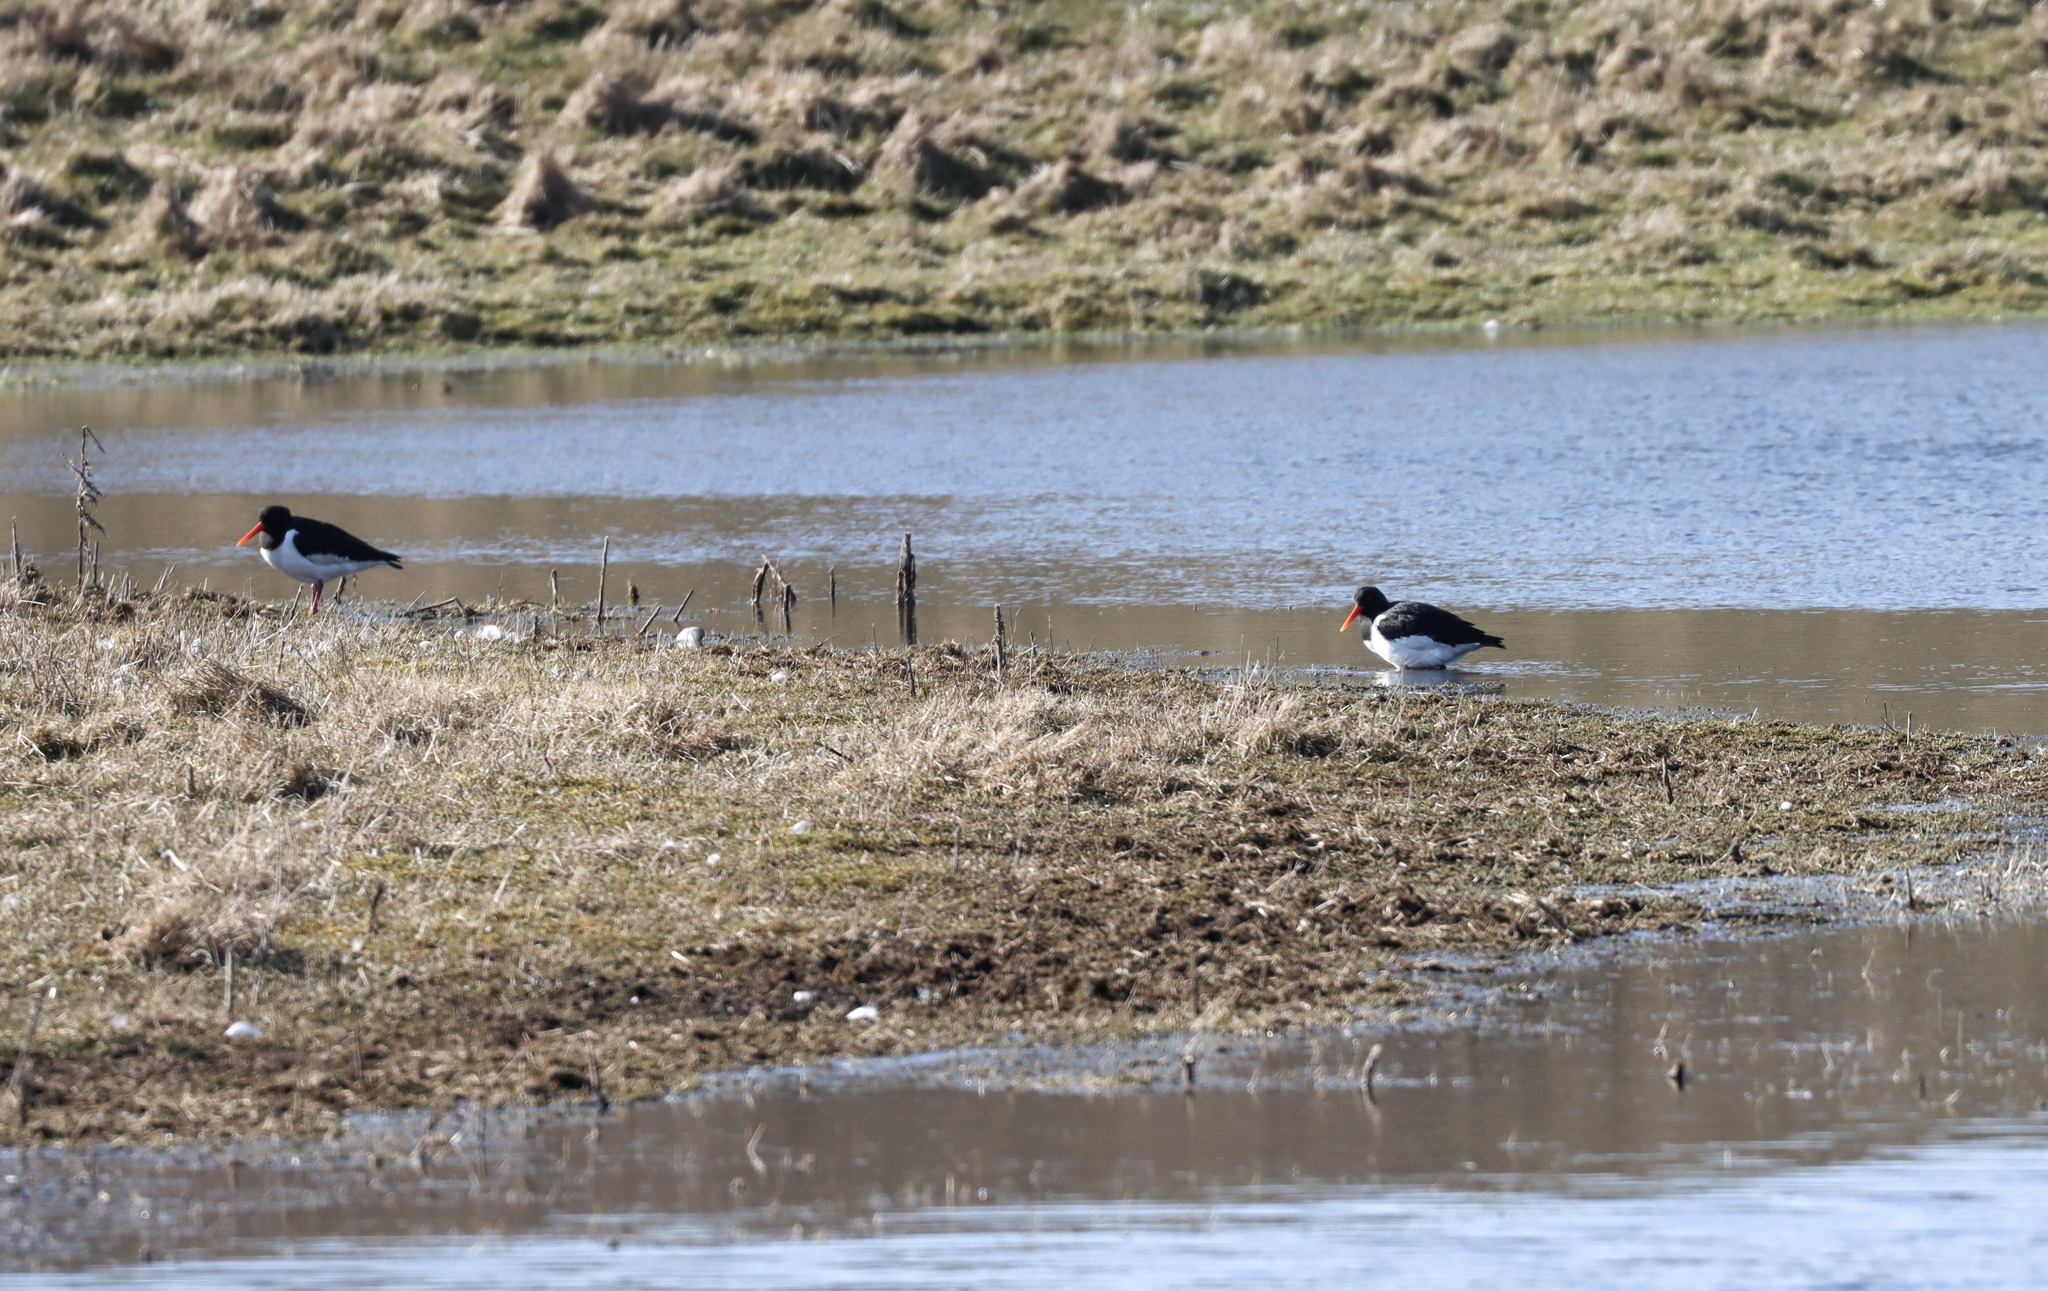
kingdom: Animalia
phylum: Chordata
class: Aves
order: Charadriiformes
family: Haematopodidae
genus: Haematopus
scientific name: Haematopus ostralegus
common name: Strandskade
